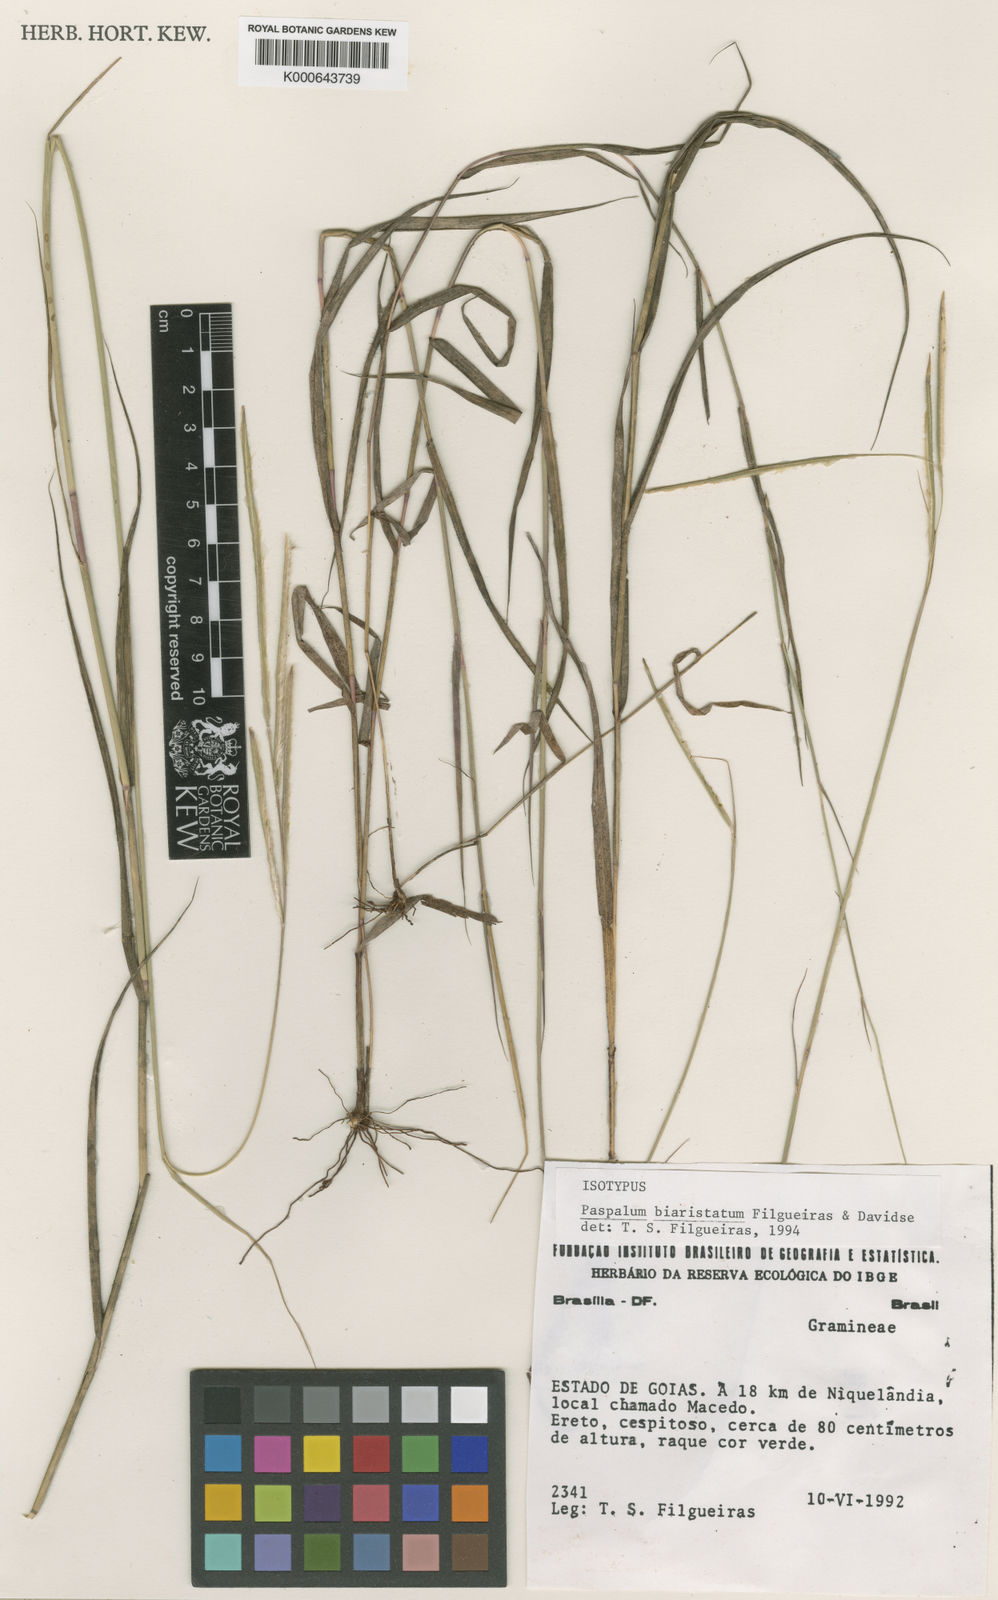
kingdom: Plantae
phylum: Tracheophyta
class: Liliopsida
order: Poales
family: Poaceae
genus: Paspalum
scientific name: Paspalum biaristatum
